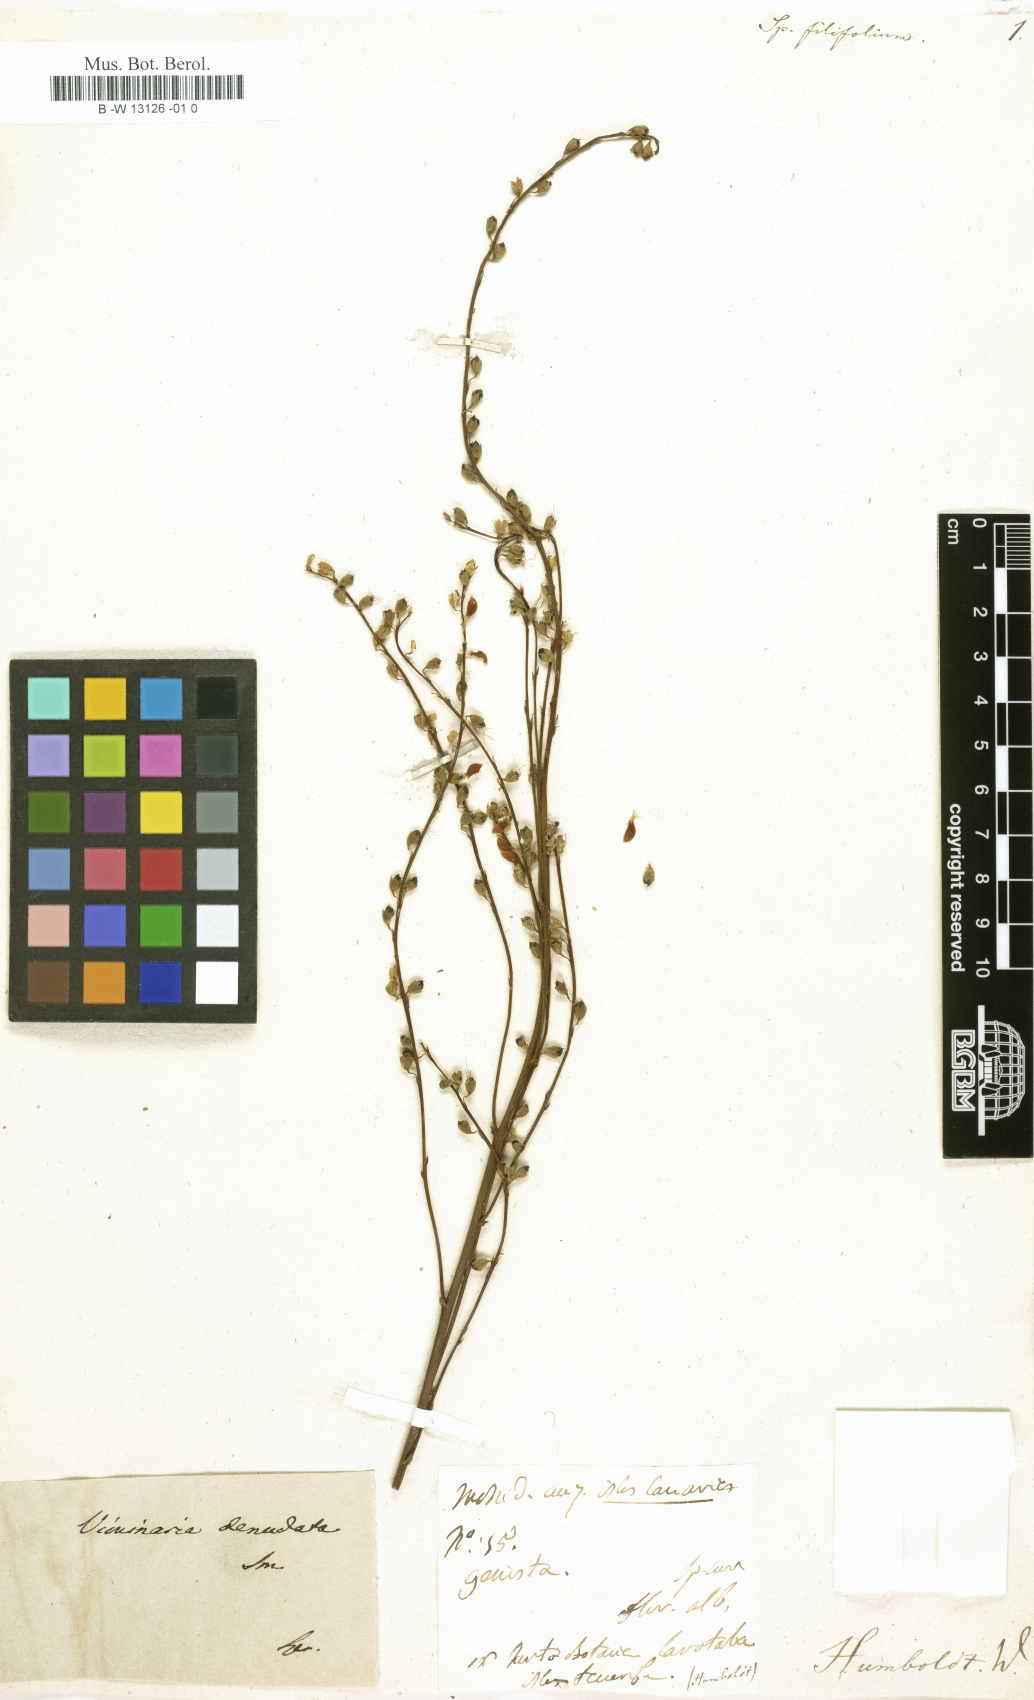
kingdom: Plantae
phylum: Tracheophyta
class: Magnoliopsida
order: Fabales
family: Fabaceae
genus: Viminaria
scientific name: Viminaria juncea
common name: Golden spray
